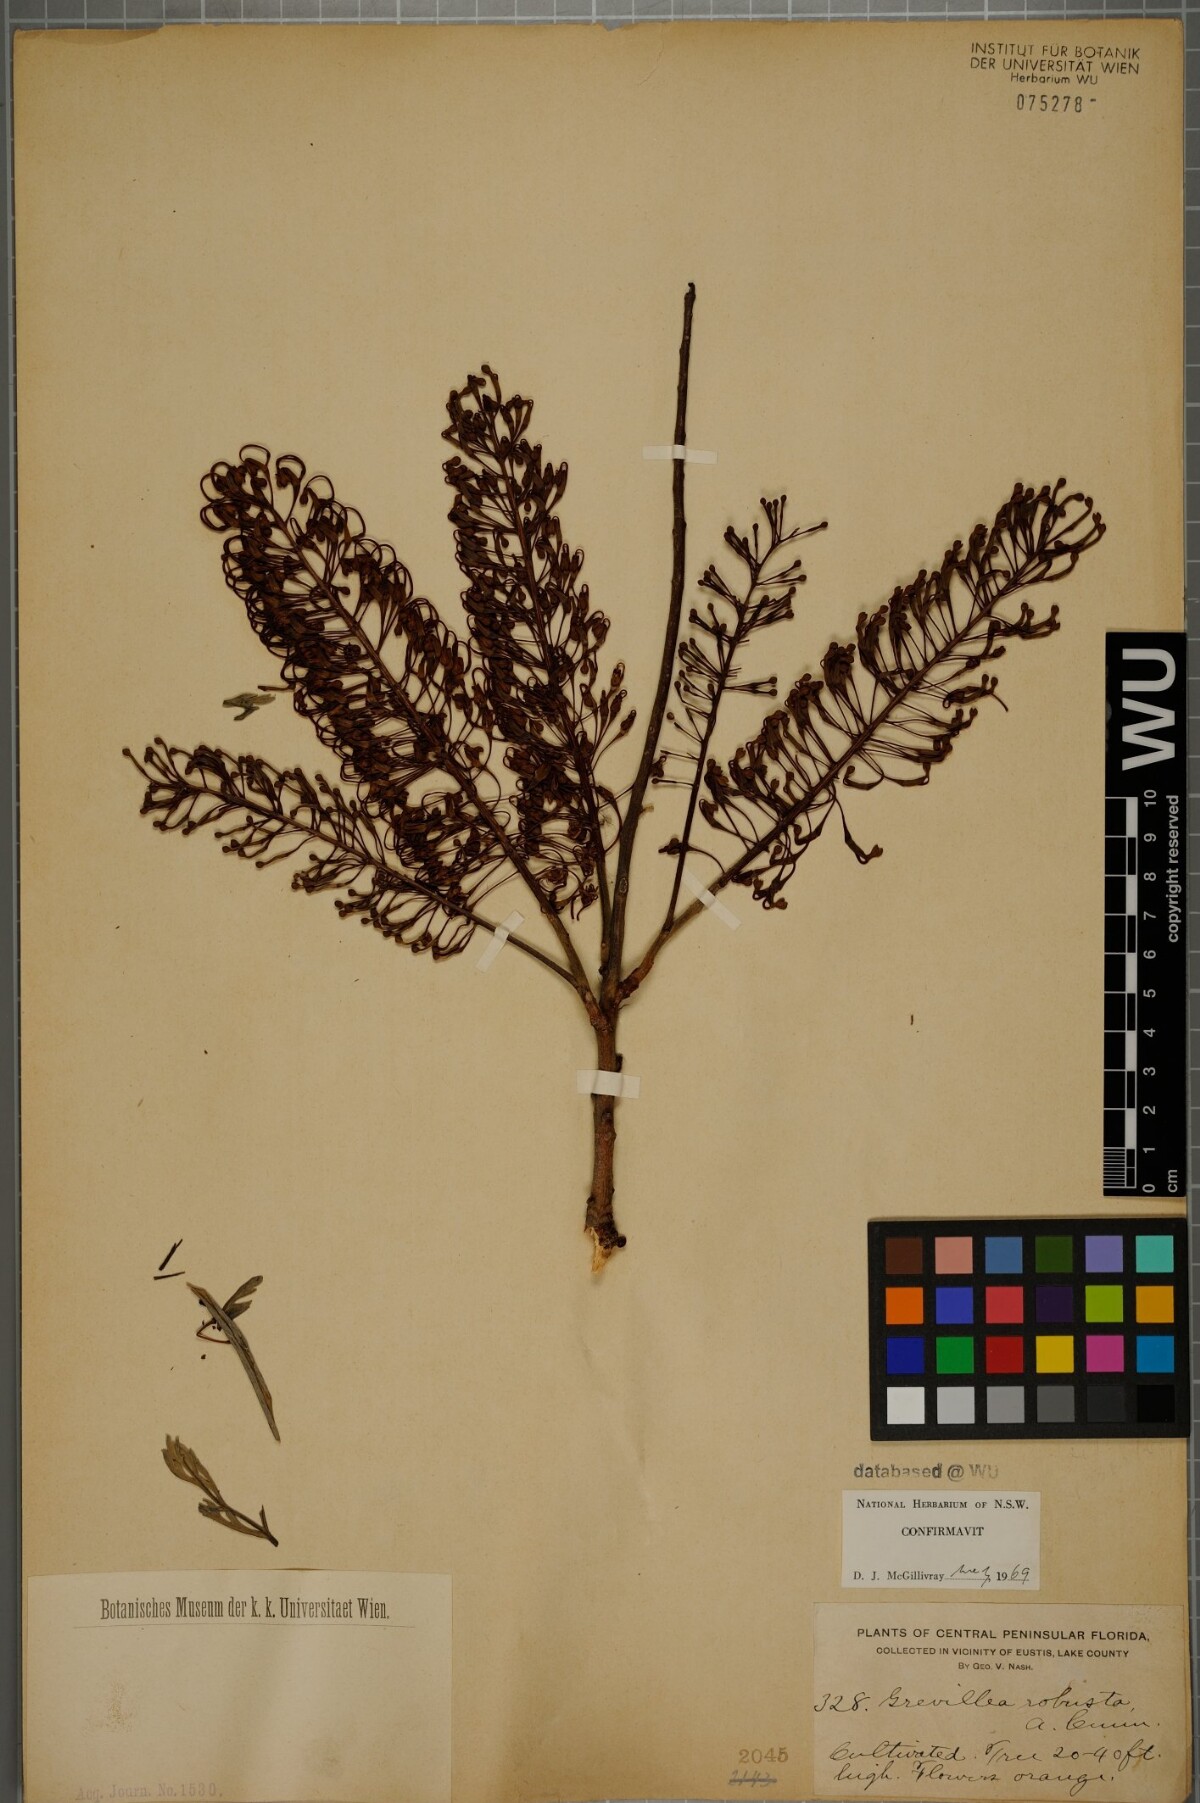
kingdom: Plantae
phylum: Tracheophyta
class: Magnoliopsida
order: Proteales
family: Proteaceae
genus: Grevillea
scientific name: Grevillea robusta
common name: Silkoak
